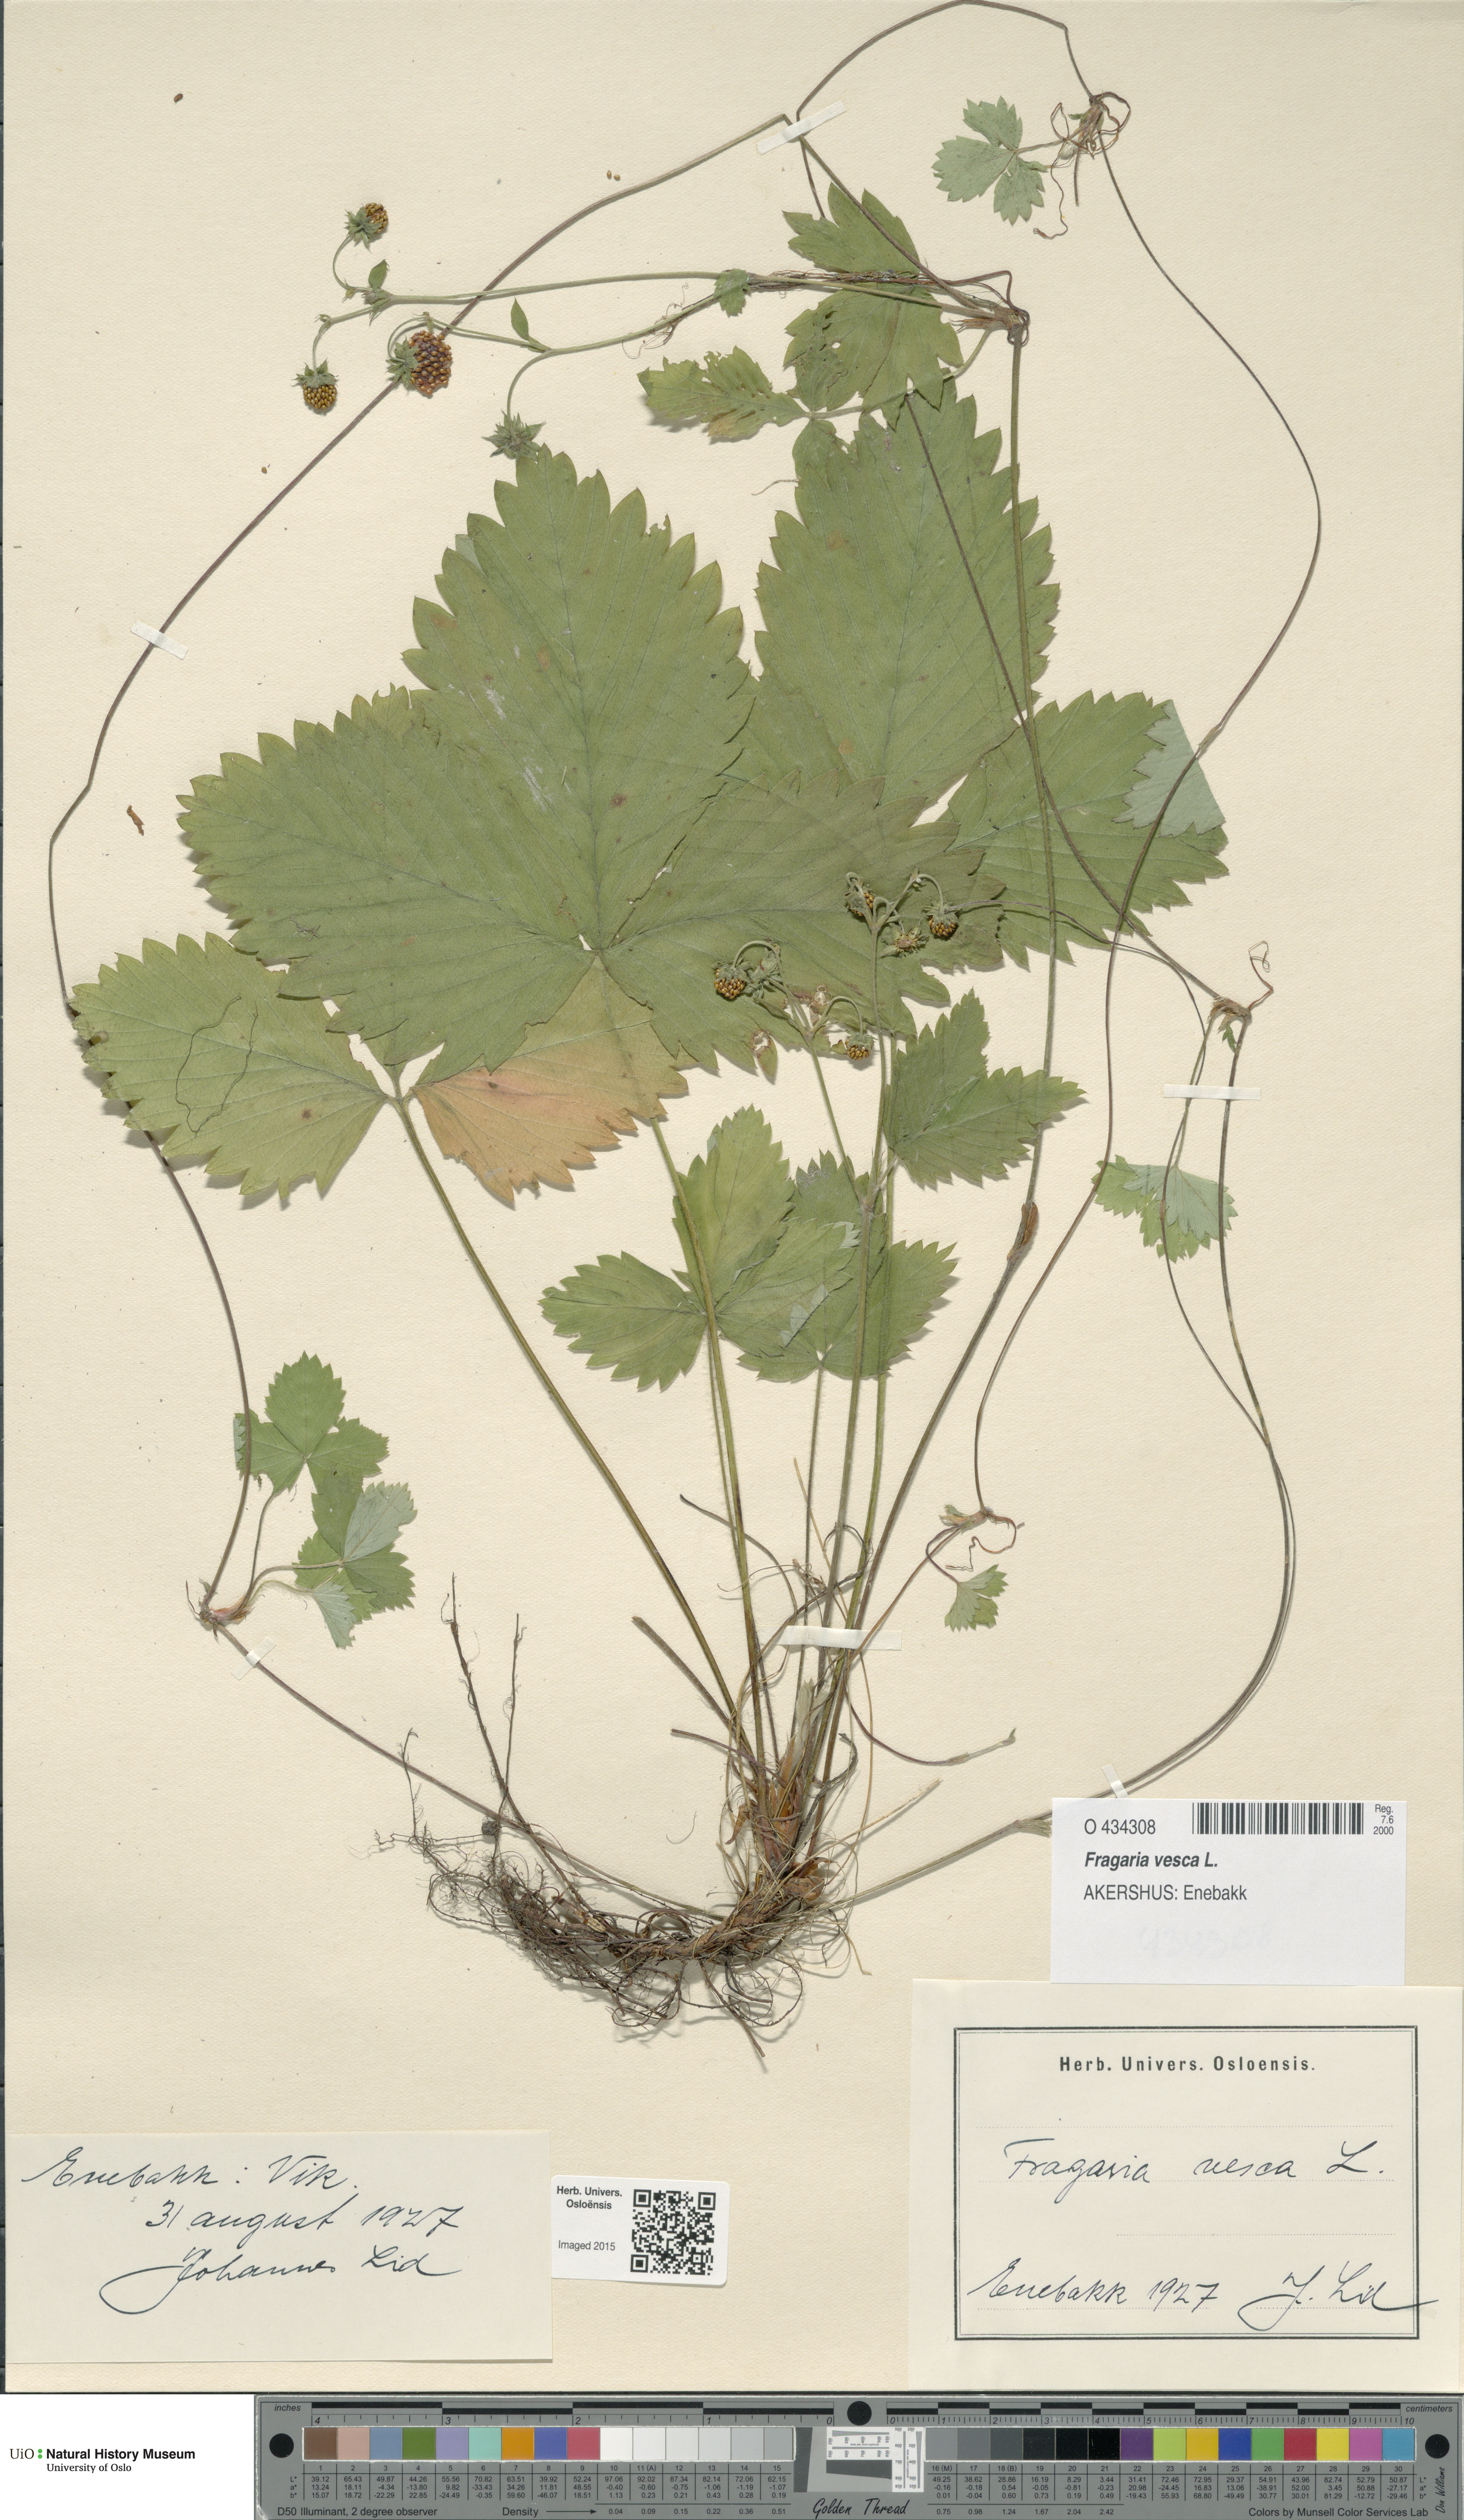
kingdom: Plantae
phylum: Tracheophyta
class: Magnoliopsida
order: Rosales
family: Rosaceae
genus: Fragaria
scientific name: Fragaria vesca
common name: Wild strawberry
